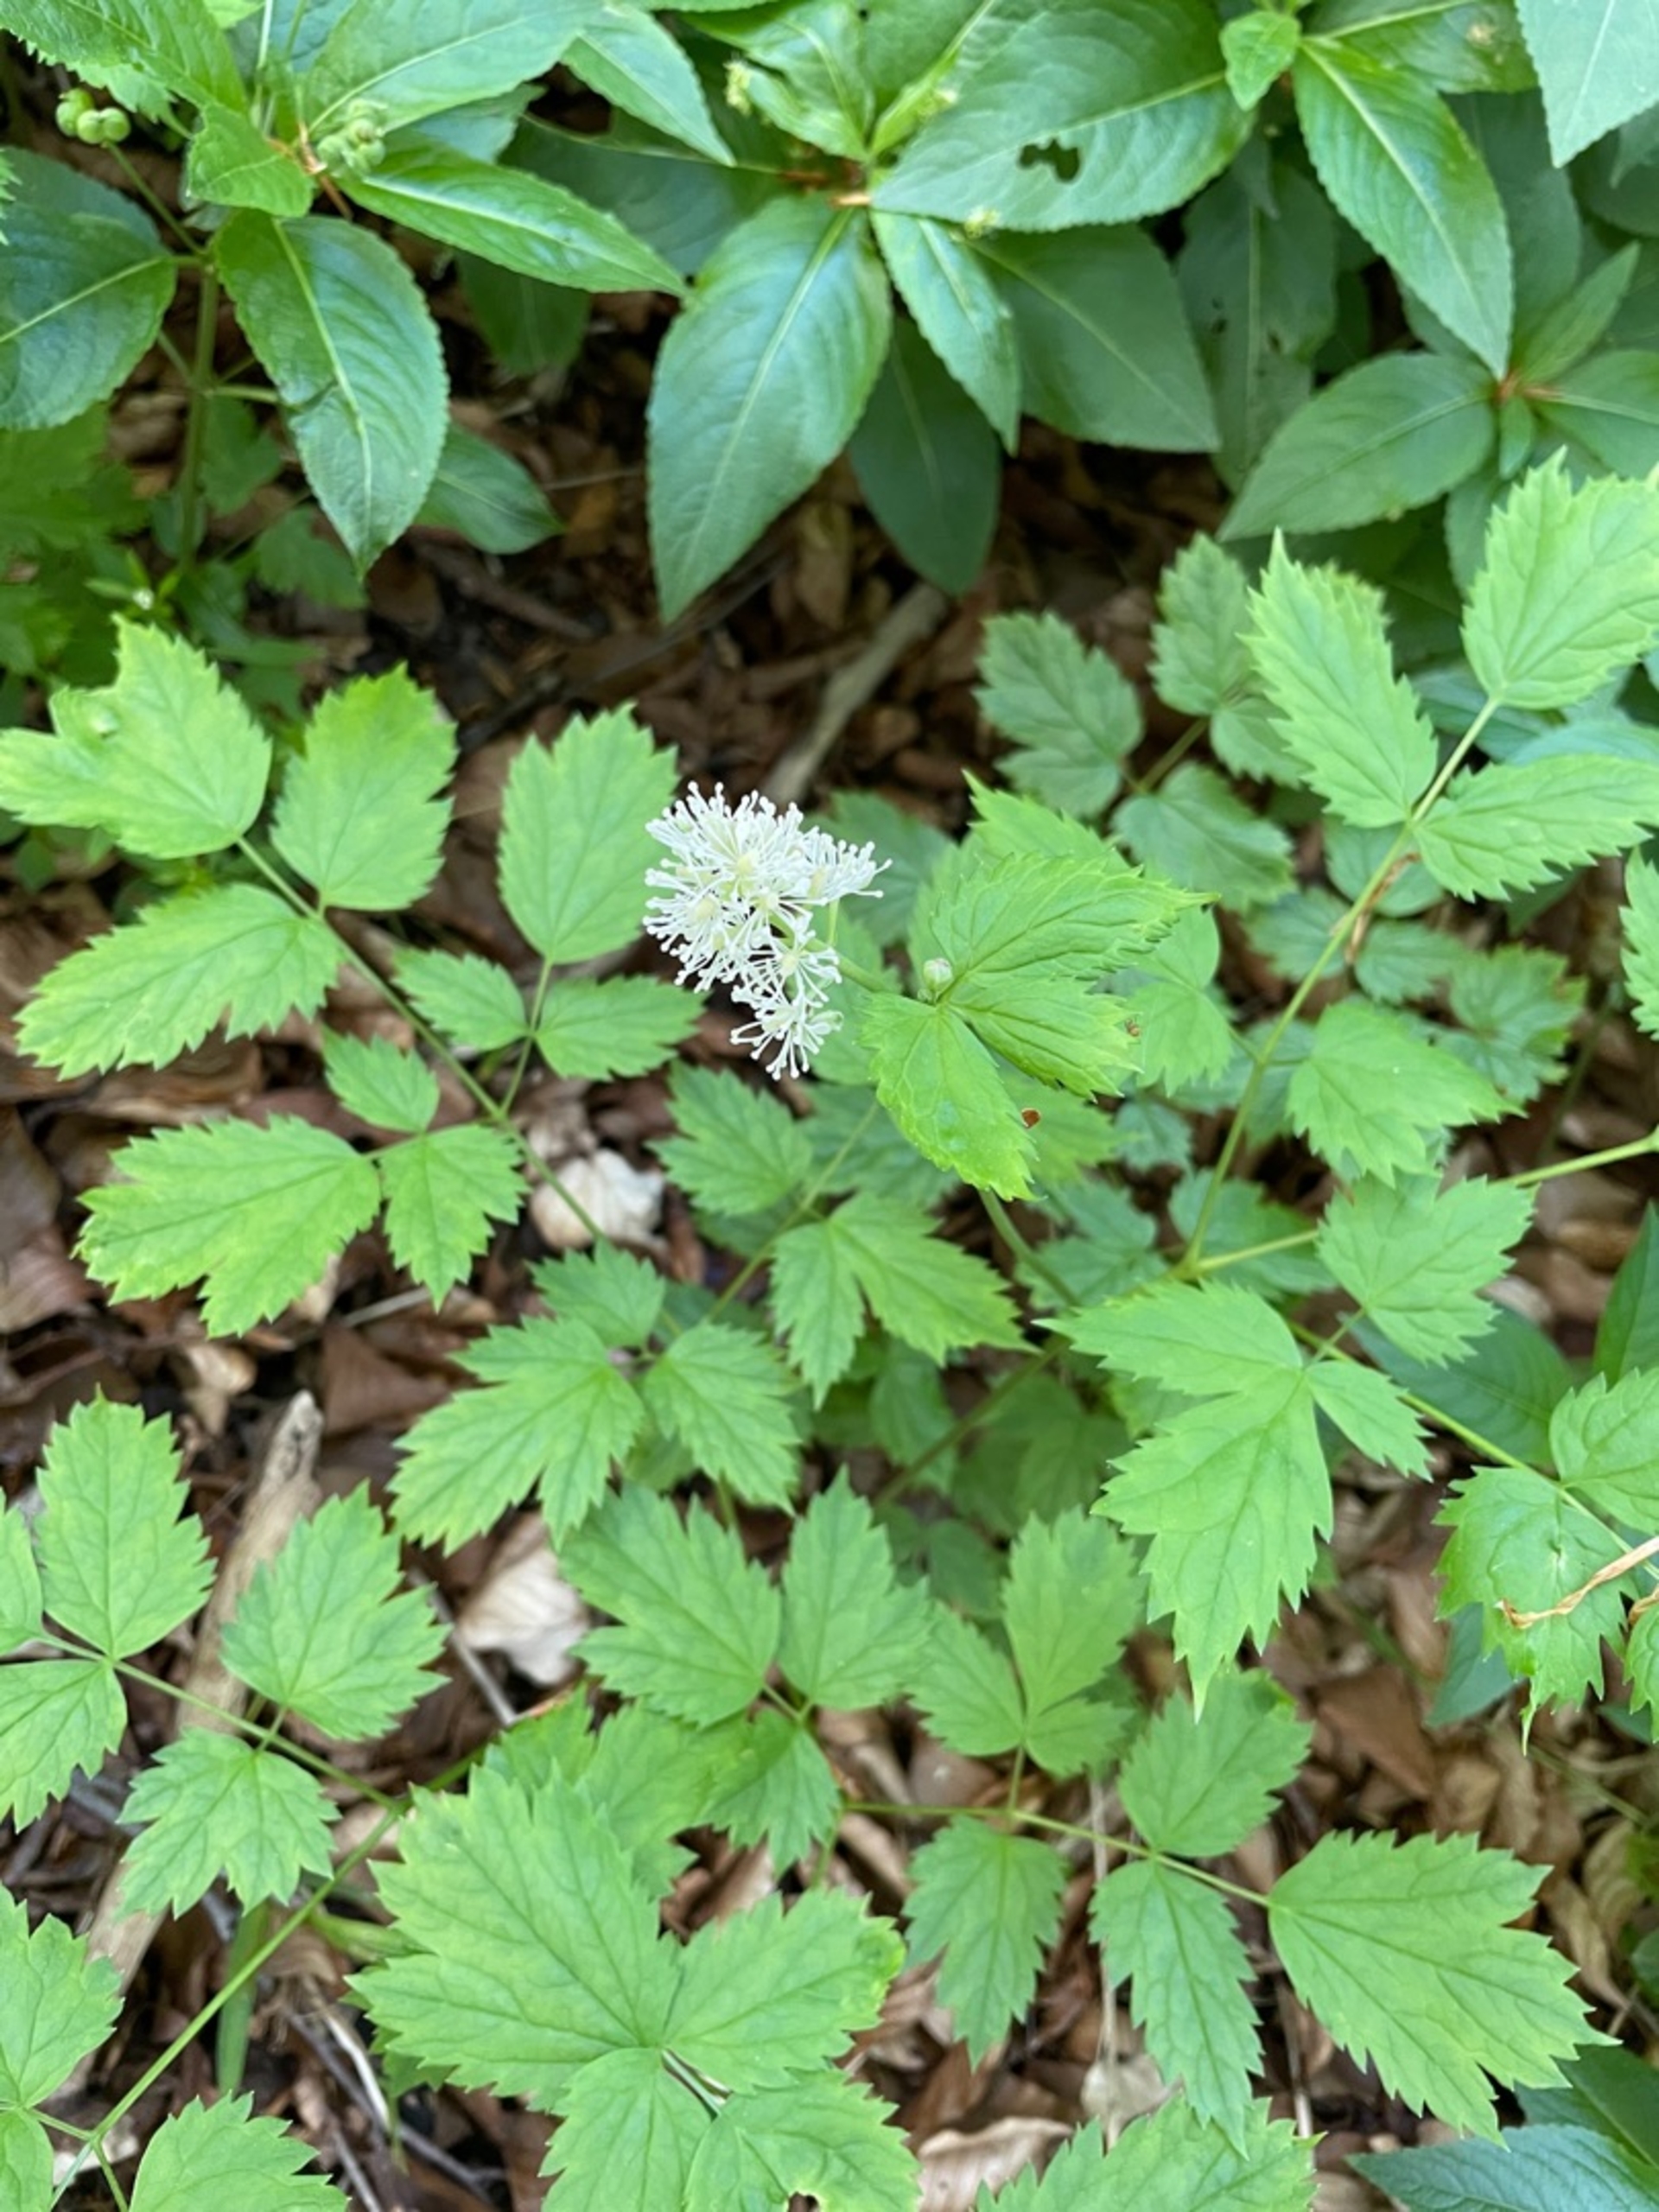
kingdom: Plantae
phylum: Tracheophyta
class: Magnoliopsida
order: Ranunculales
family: Ranunculaceae
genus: Actaea
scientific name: Actaea spicata
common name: Druemunke
